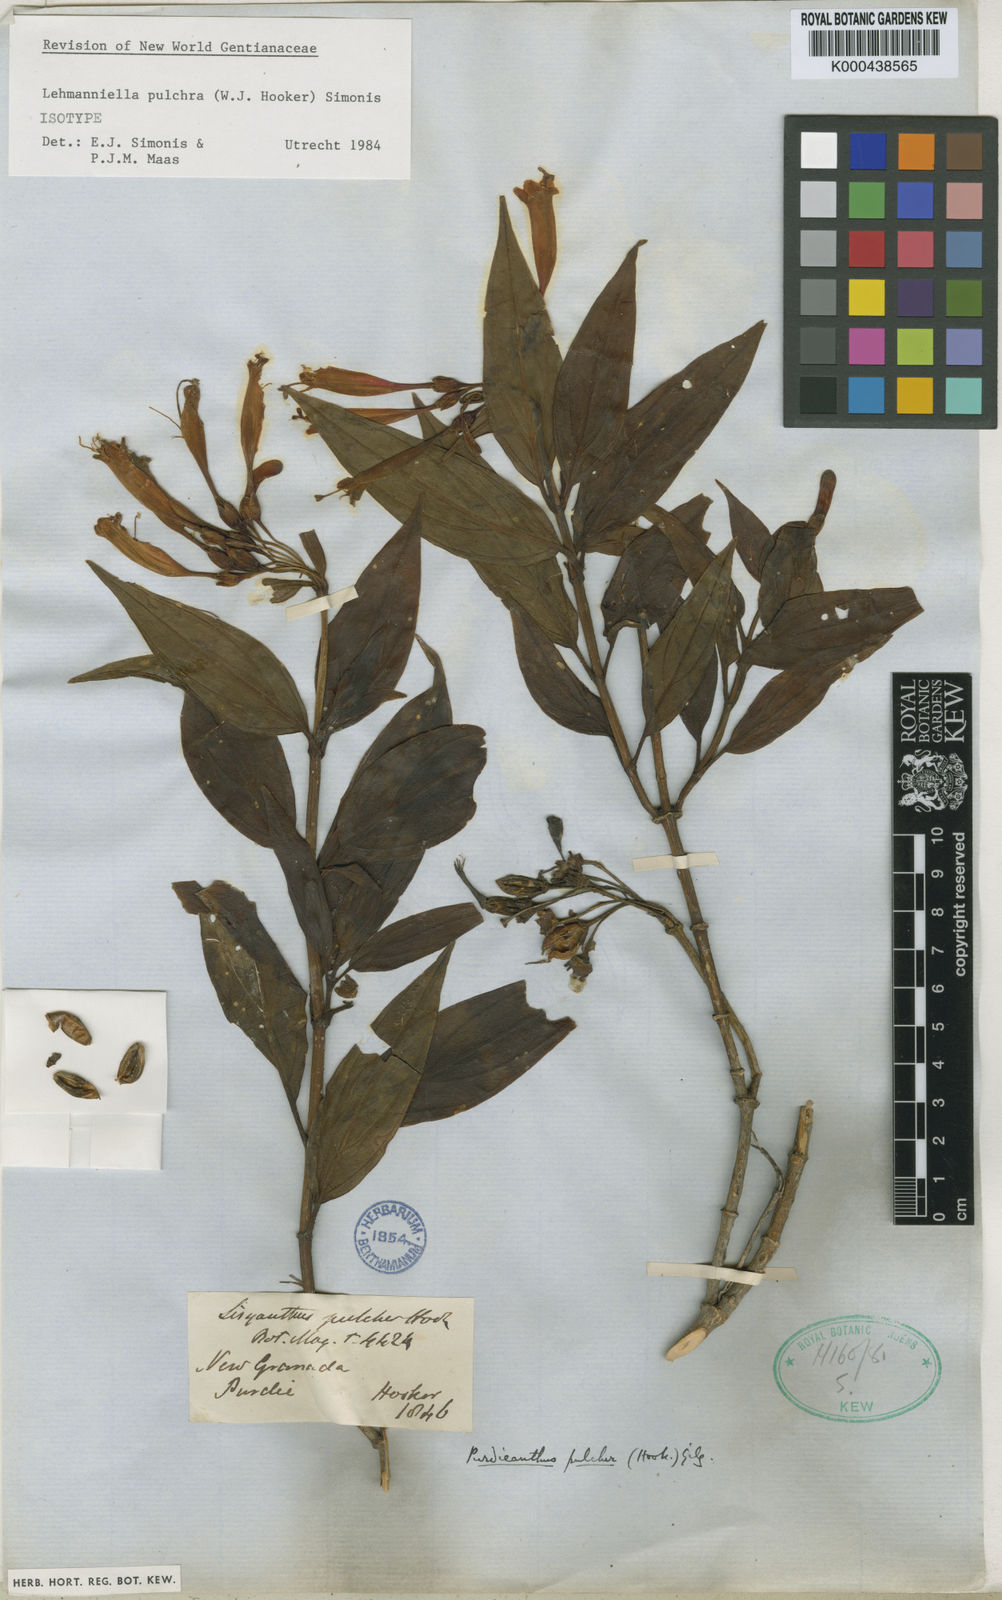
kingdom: Plantae
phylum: Tracheophyta
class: Magnoliopsida
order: Gentianales
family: Gentianaceae
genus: Lehmanniella
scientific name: Lehmanniella pulchra
